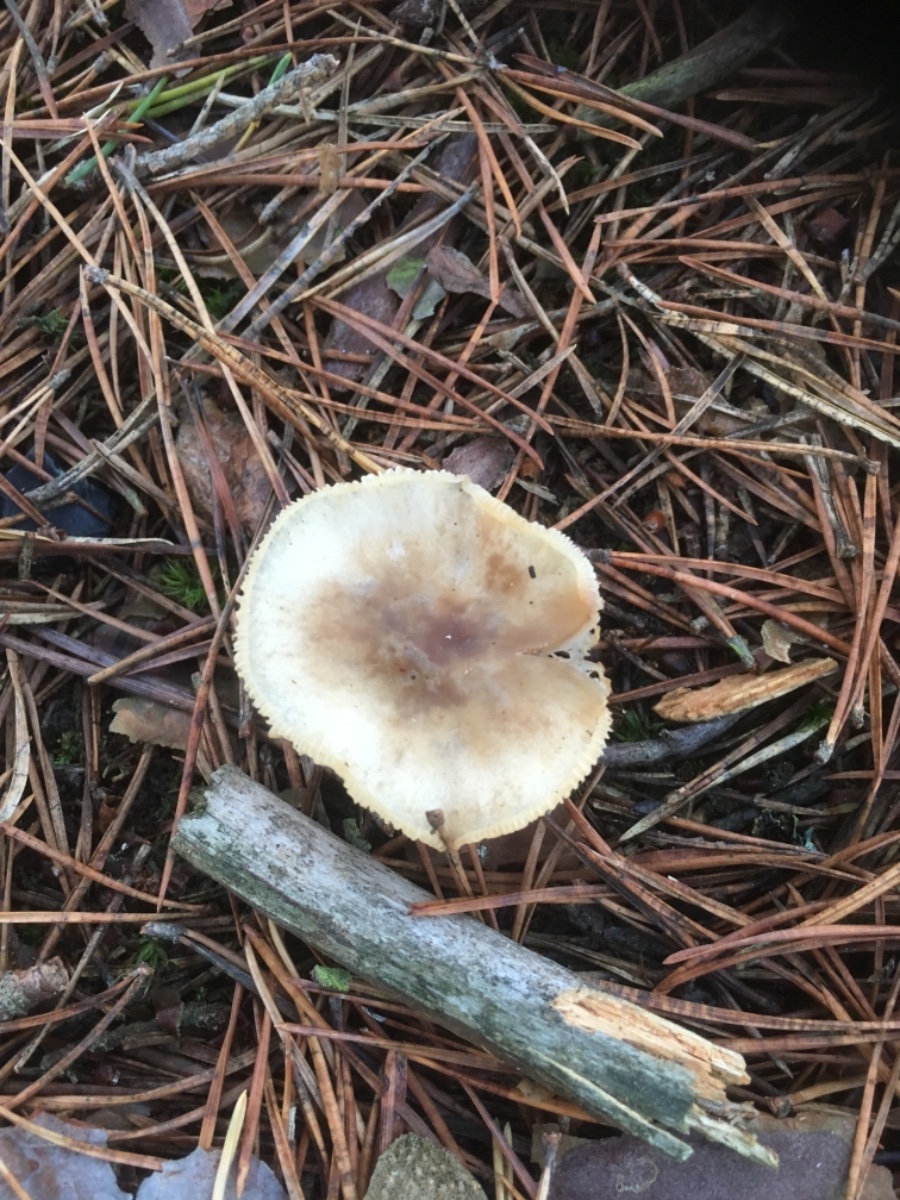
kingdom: Fungi
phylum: Basidiomycota
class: Agaricomycetes
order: Agaricales
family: Omphalotaceae
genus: Rhodocollybia
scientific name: Rhodocollybia asema
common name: horngrå fladhat
